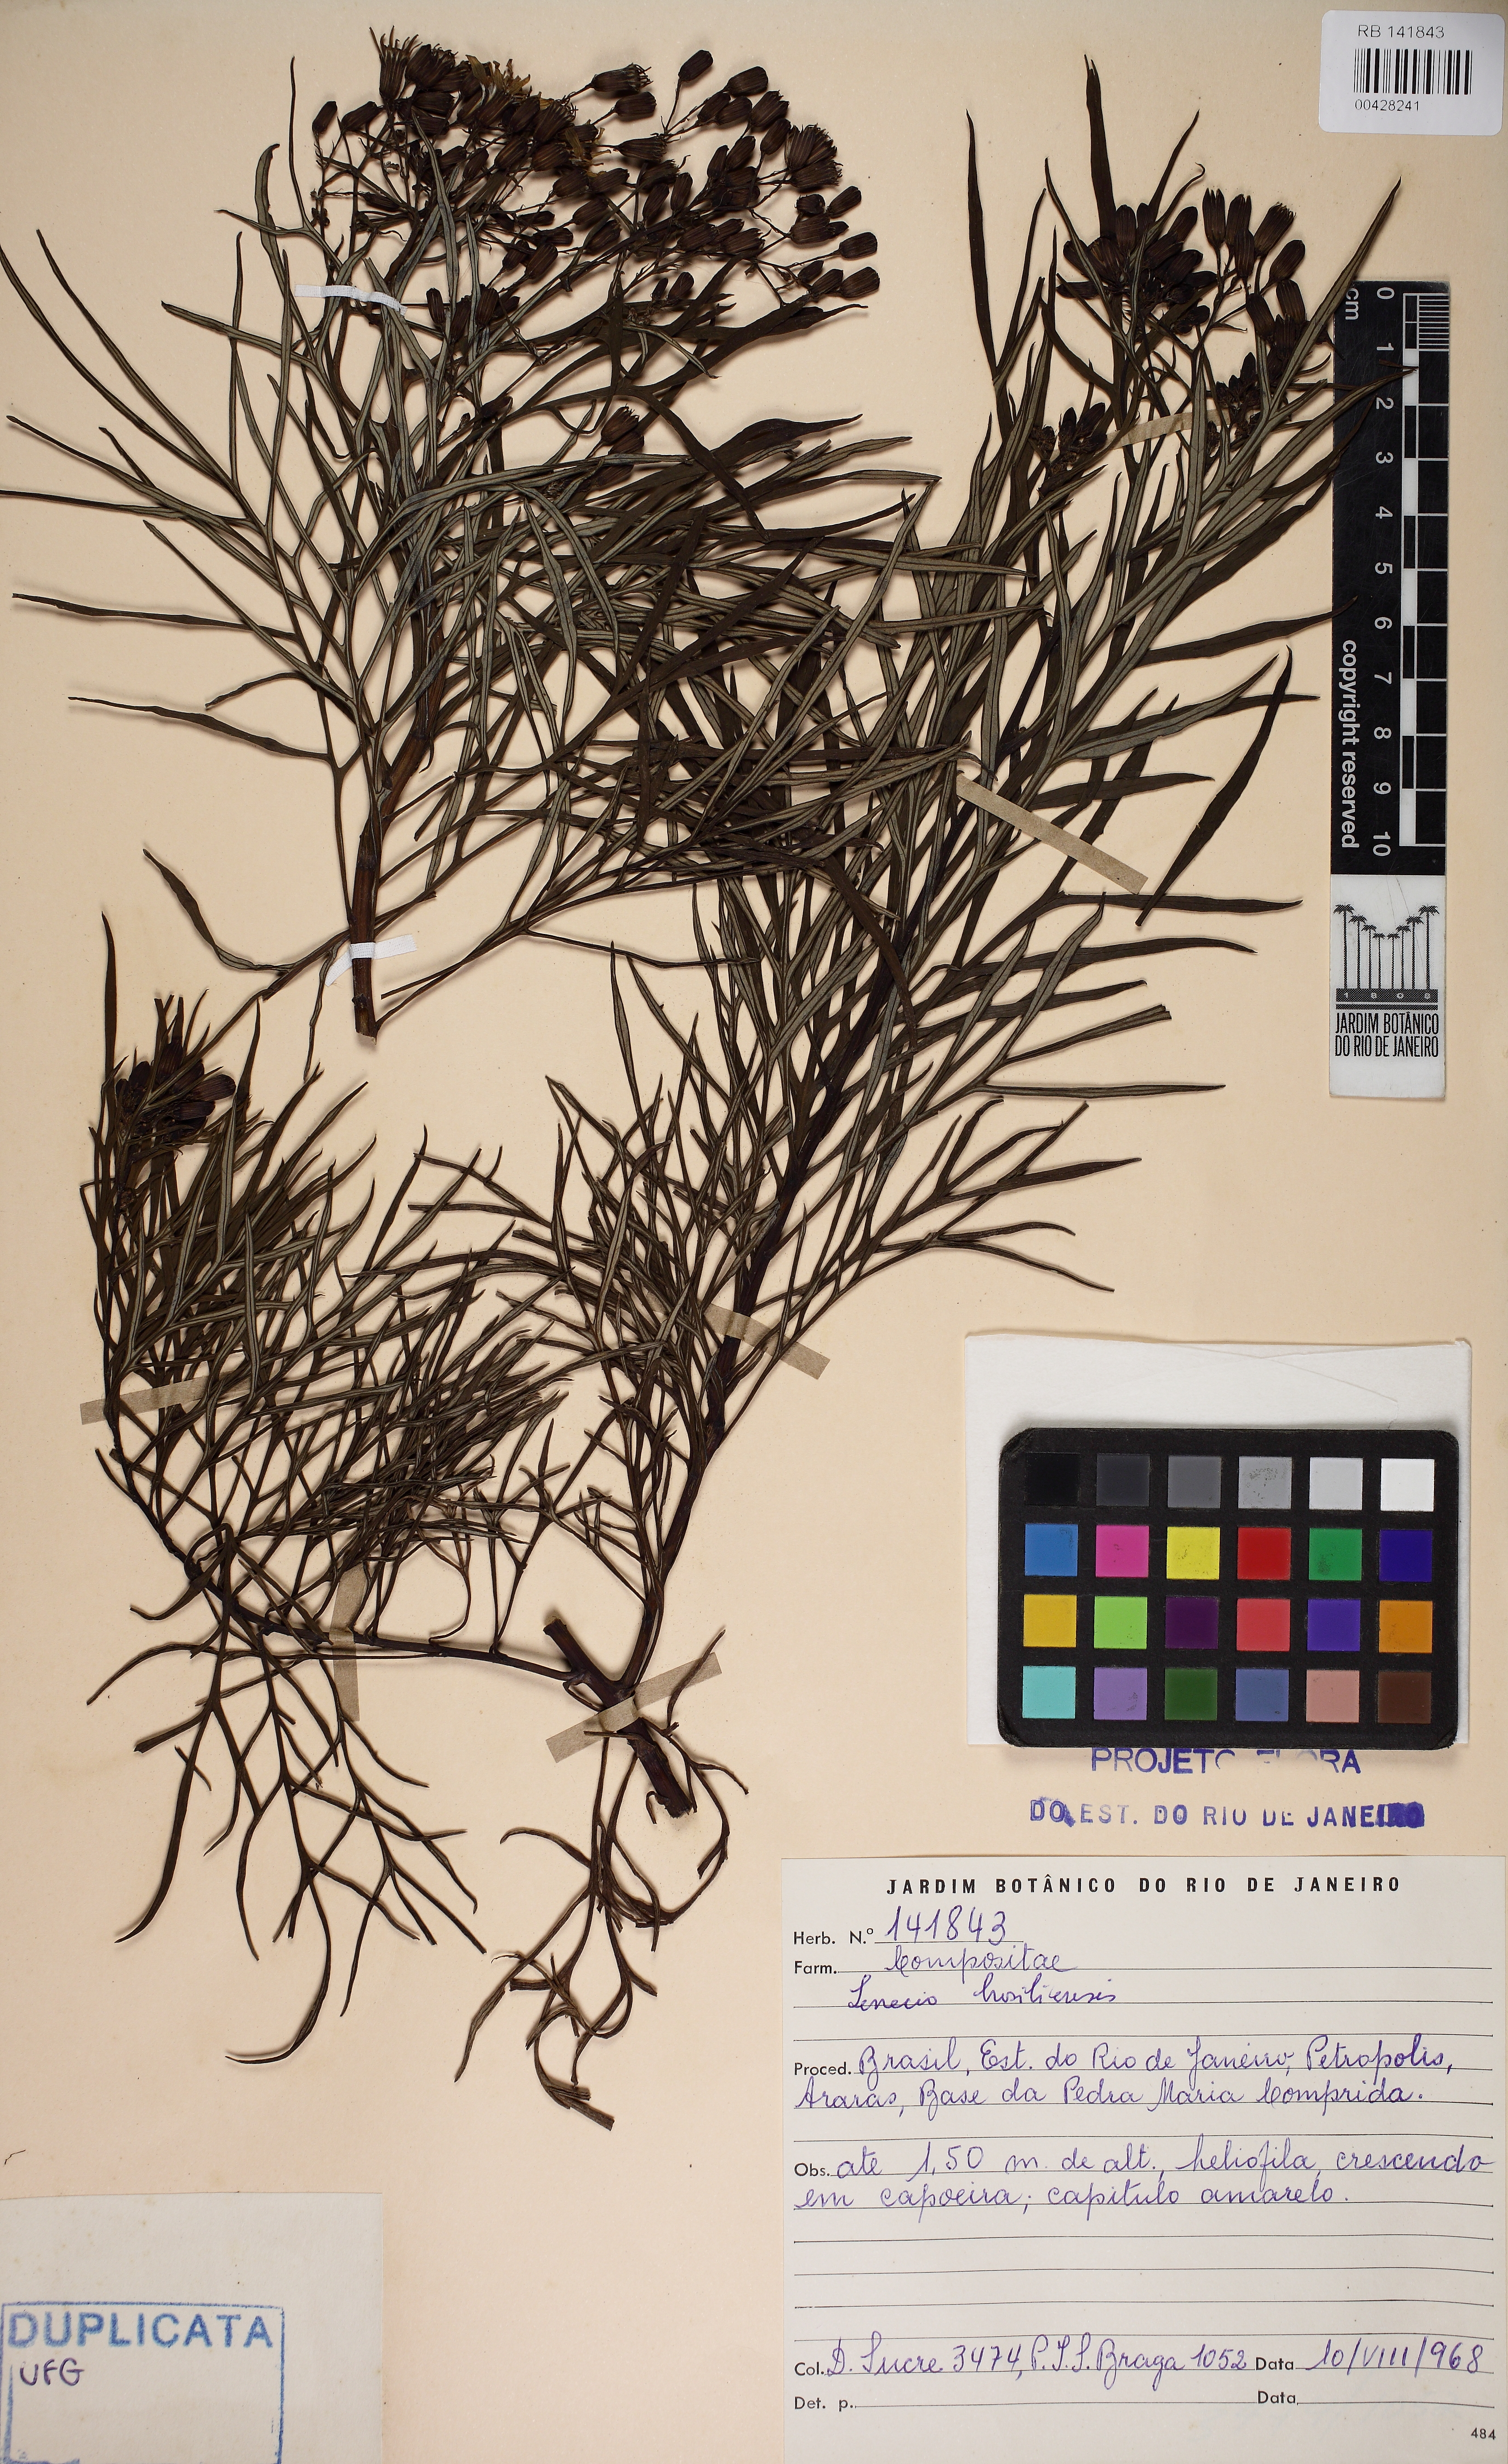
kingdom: Plantae
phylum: Tracheophyta
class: Magnoliopsida
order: Asterales
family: Asteraceae
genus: Senecio
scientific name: Senecio brasiliensis
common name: Hemp-leaf ragwort
